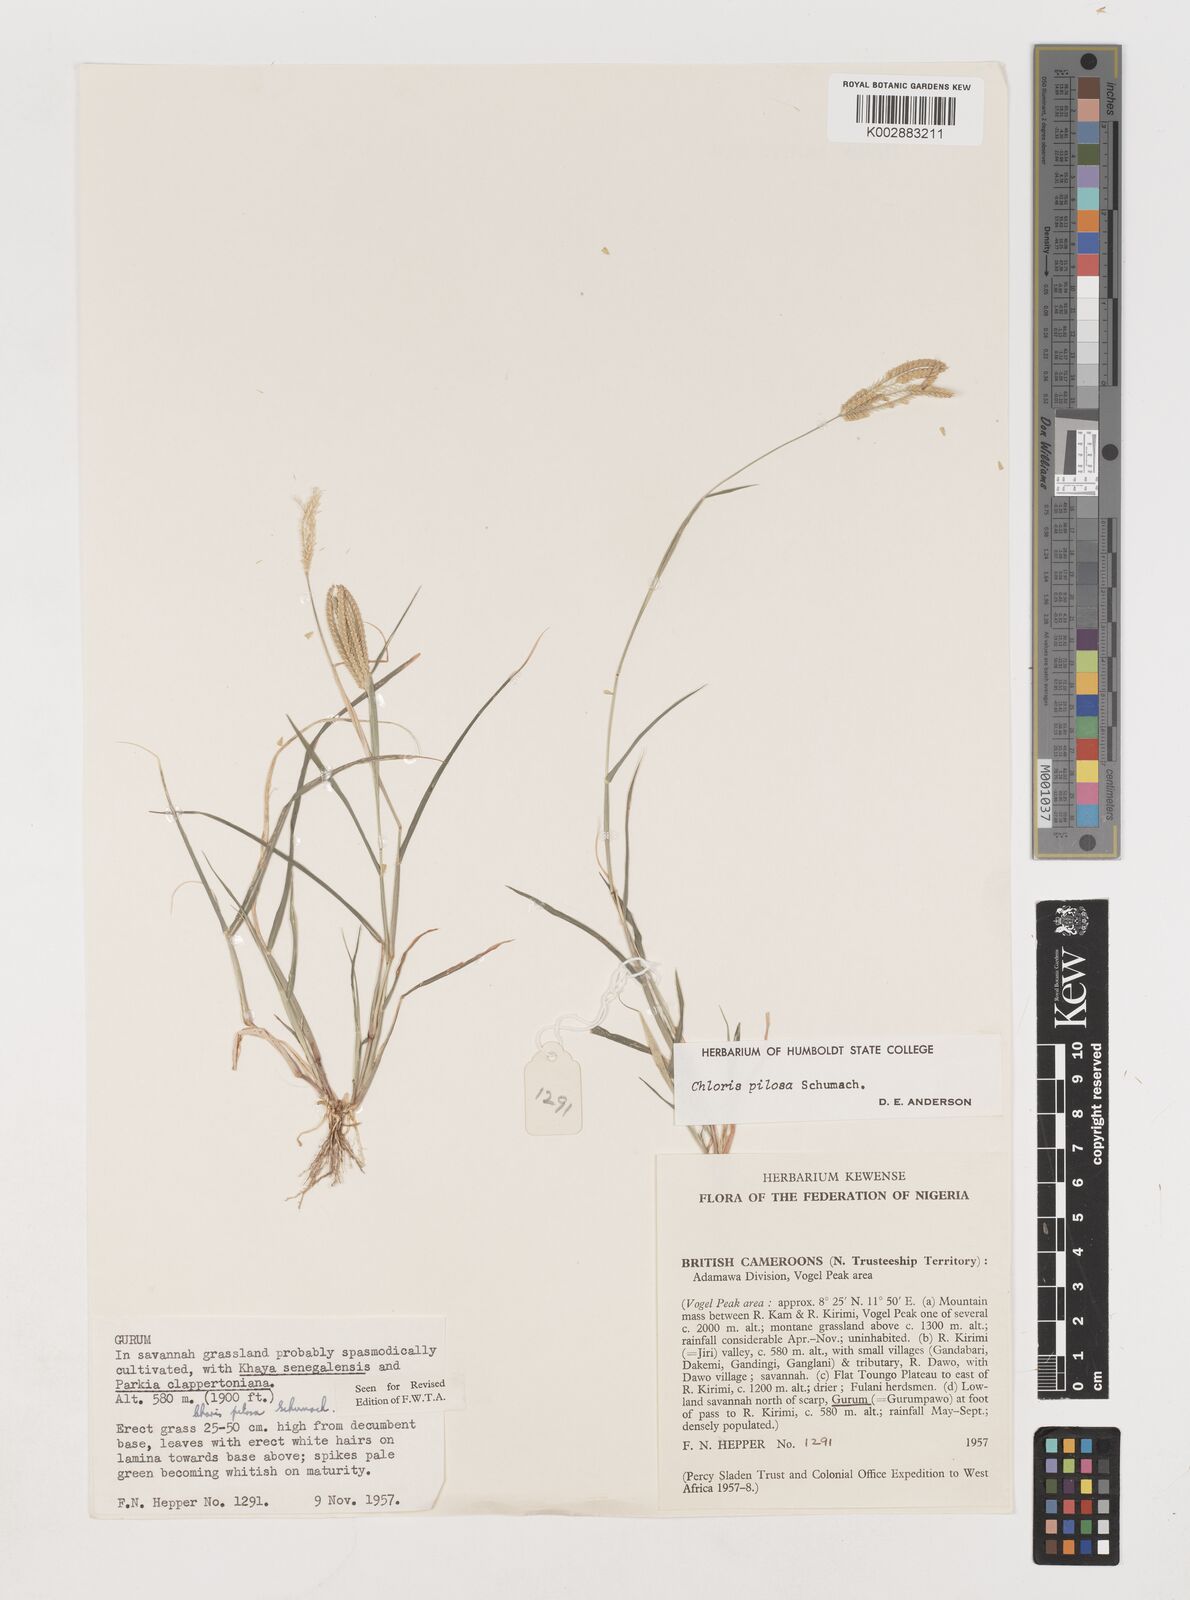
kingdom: Plantae
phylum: Tracheophyta
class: Liliopsida
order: Poales
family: Poaceae
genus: Chloris
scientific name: Chloris pilosa
